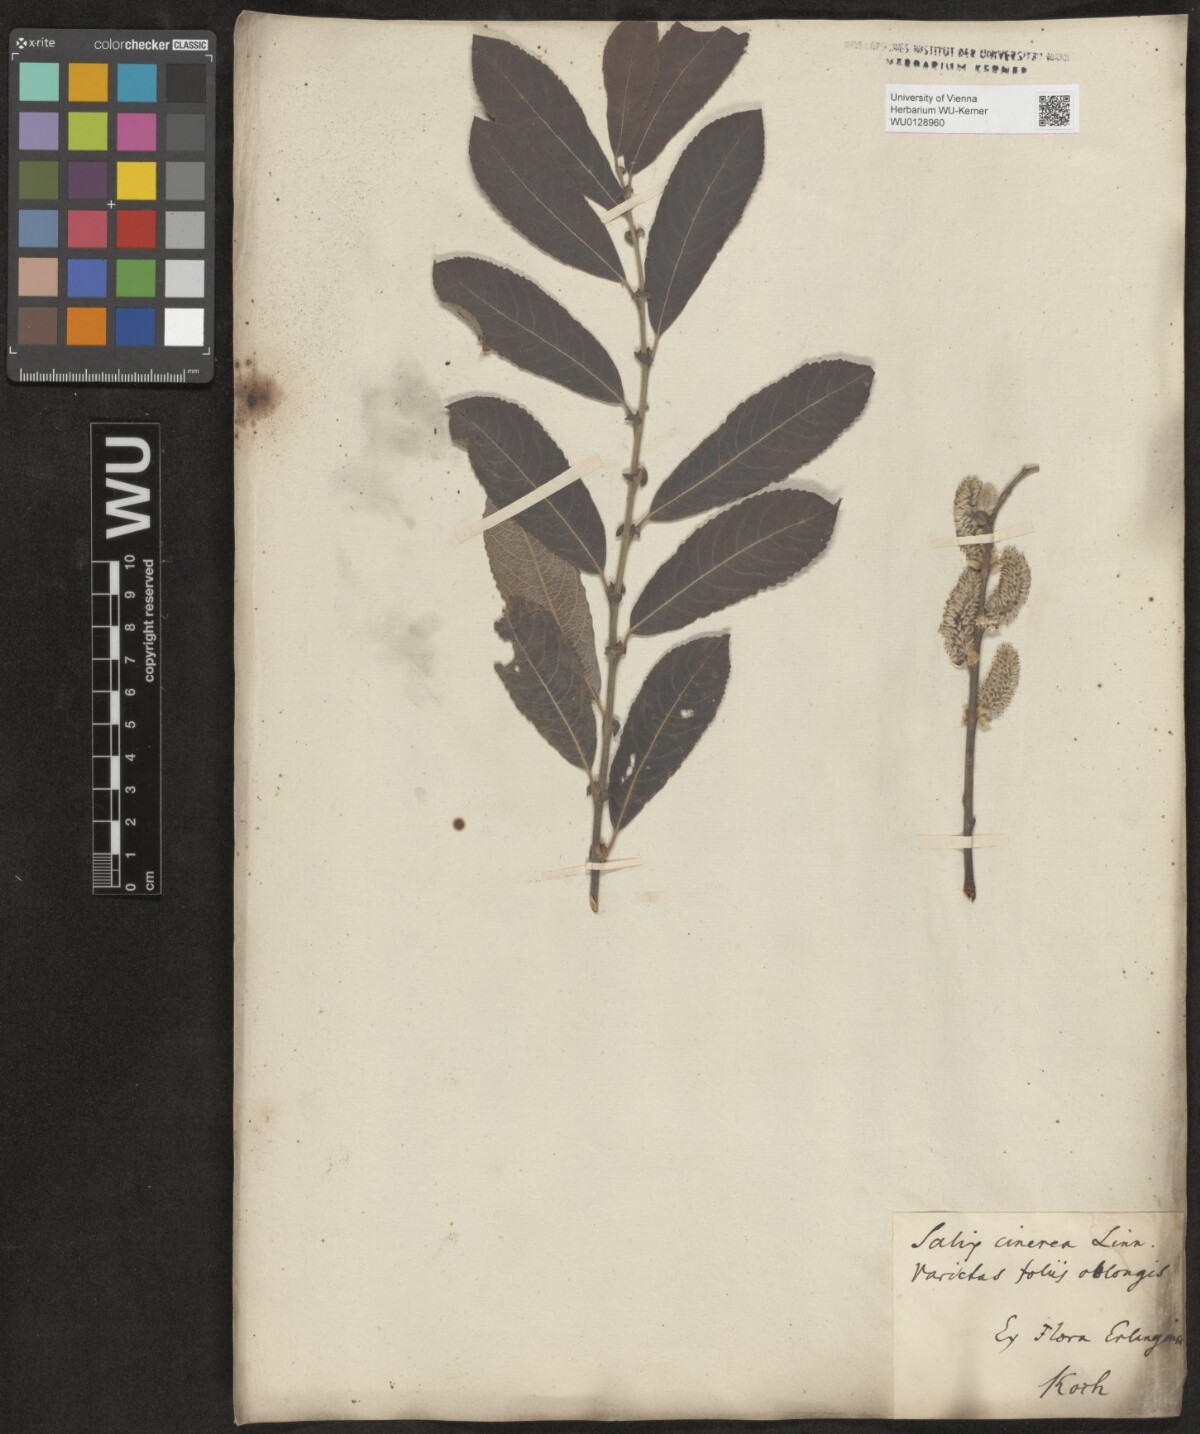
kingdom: Plantae
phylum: Tracheophyta
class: Magnoliopsida
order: Malpighiales
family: Salicaceae
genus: Salix
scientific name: Salix cinerea
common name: Common sallow
